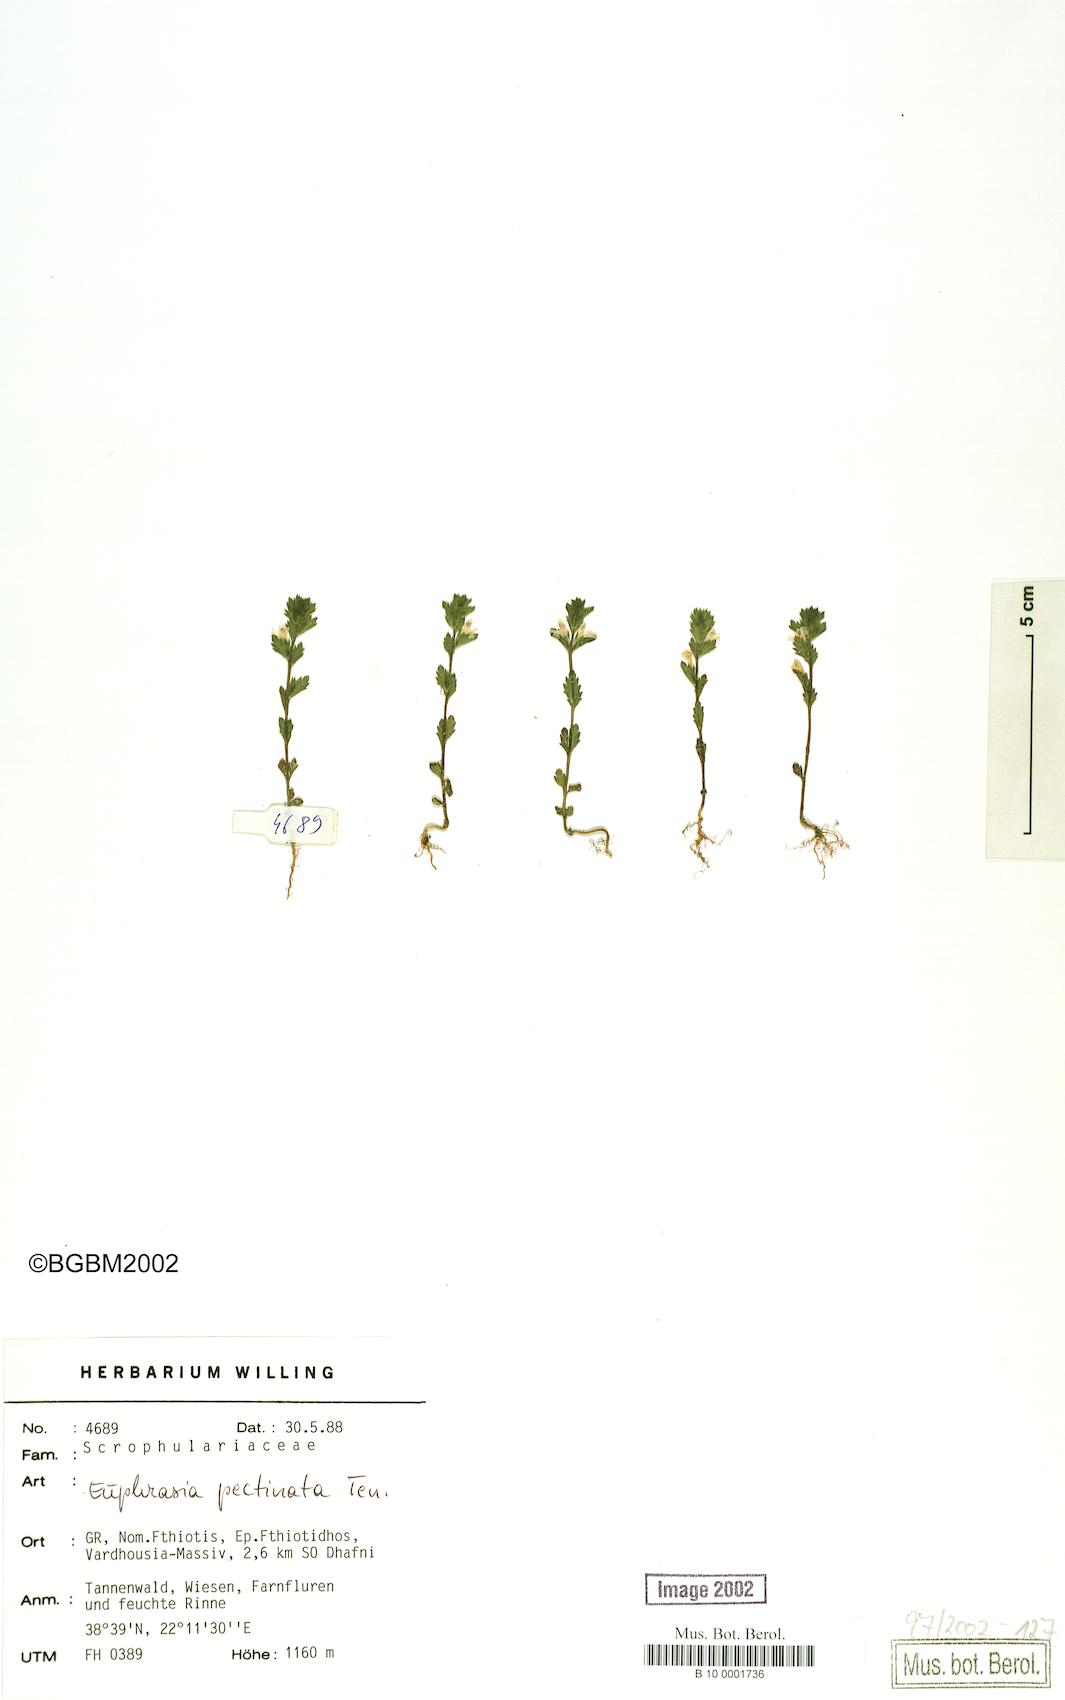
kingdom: Plantae
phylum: Tracheophyta
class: Magnoliopsida
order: Lamiales
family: Orobanchaceae
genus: Euphrasia
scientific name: Euphrasia pectinata
